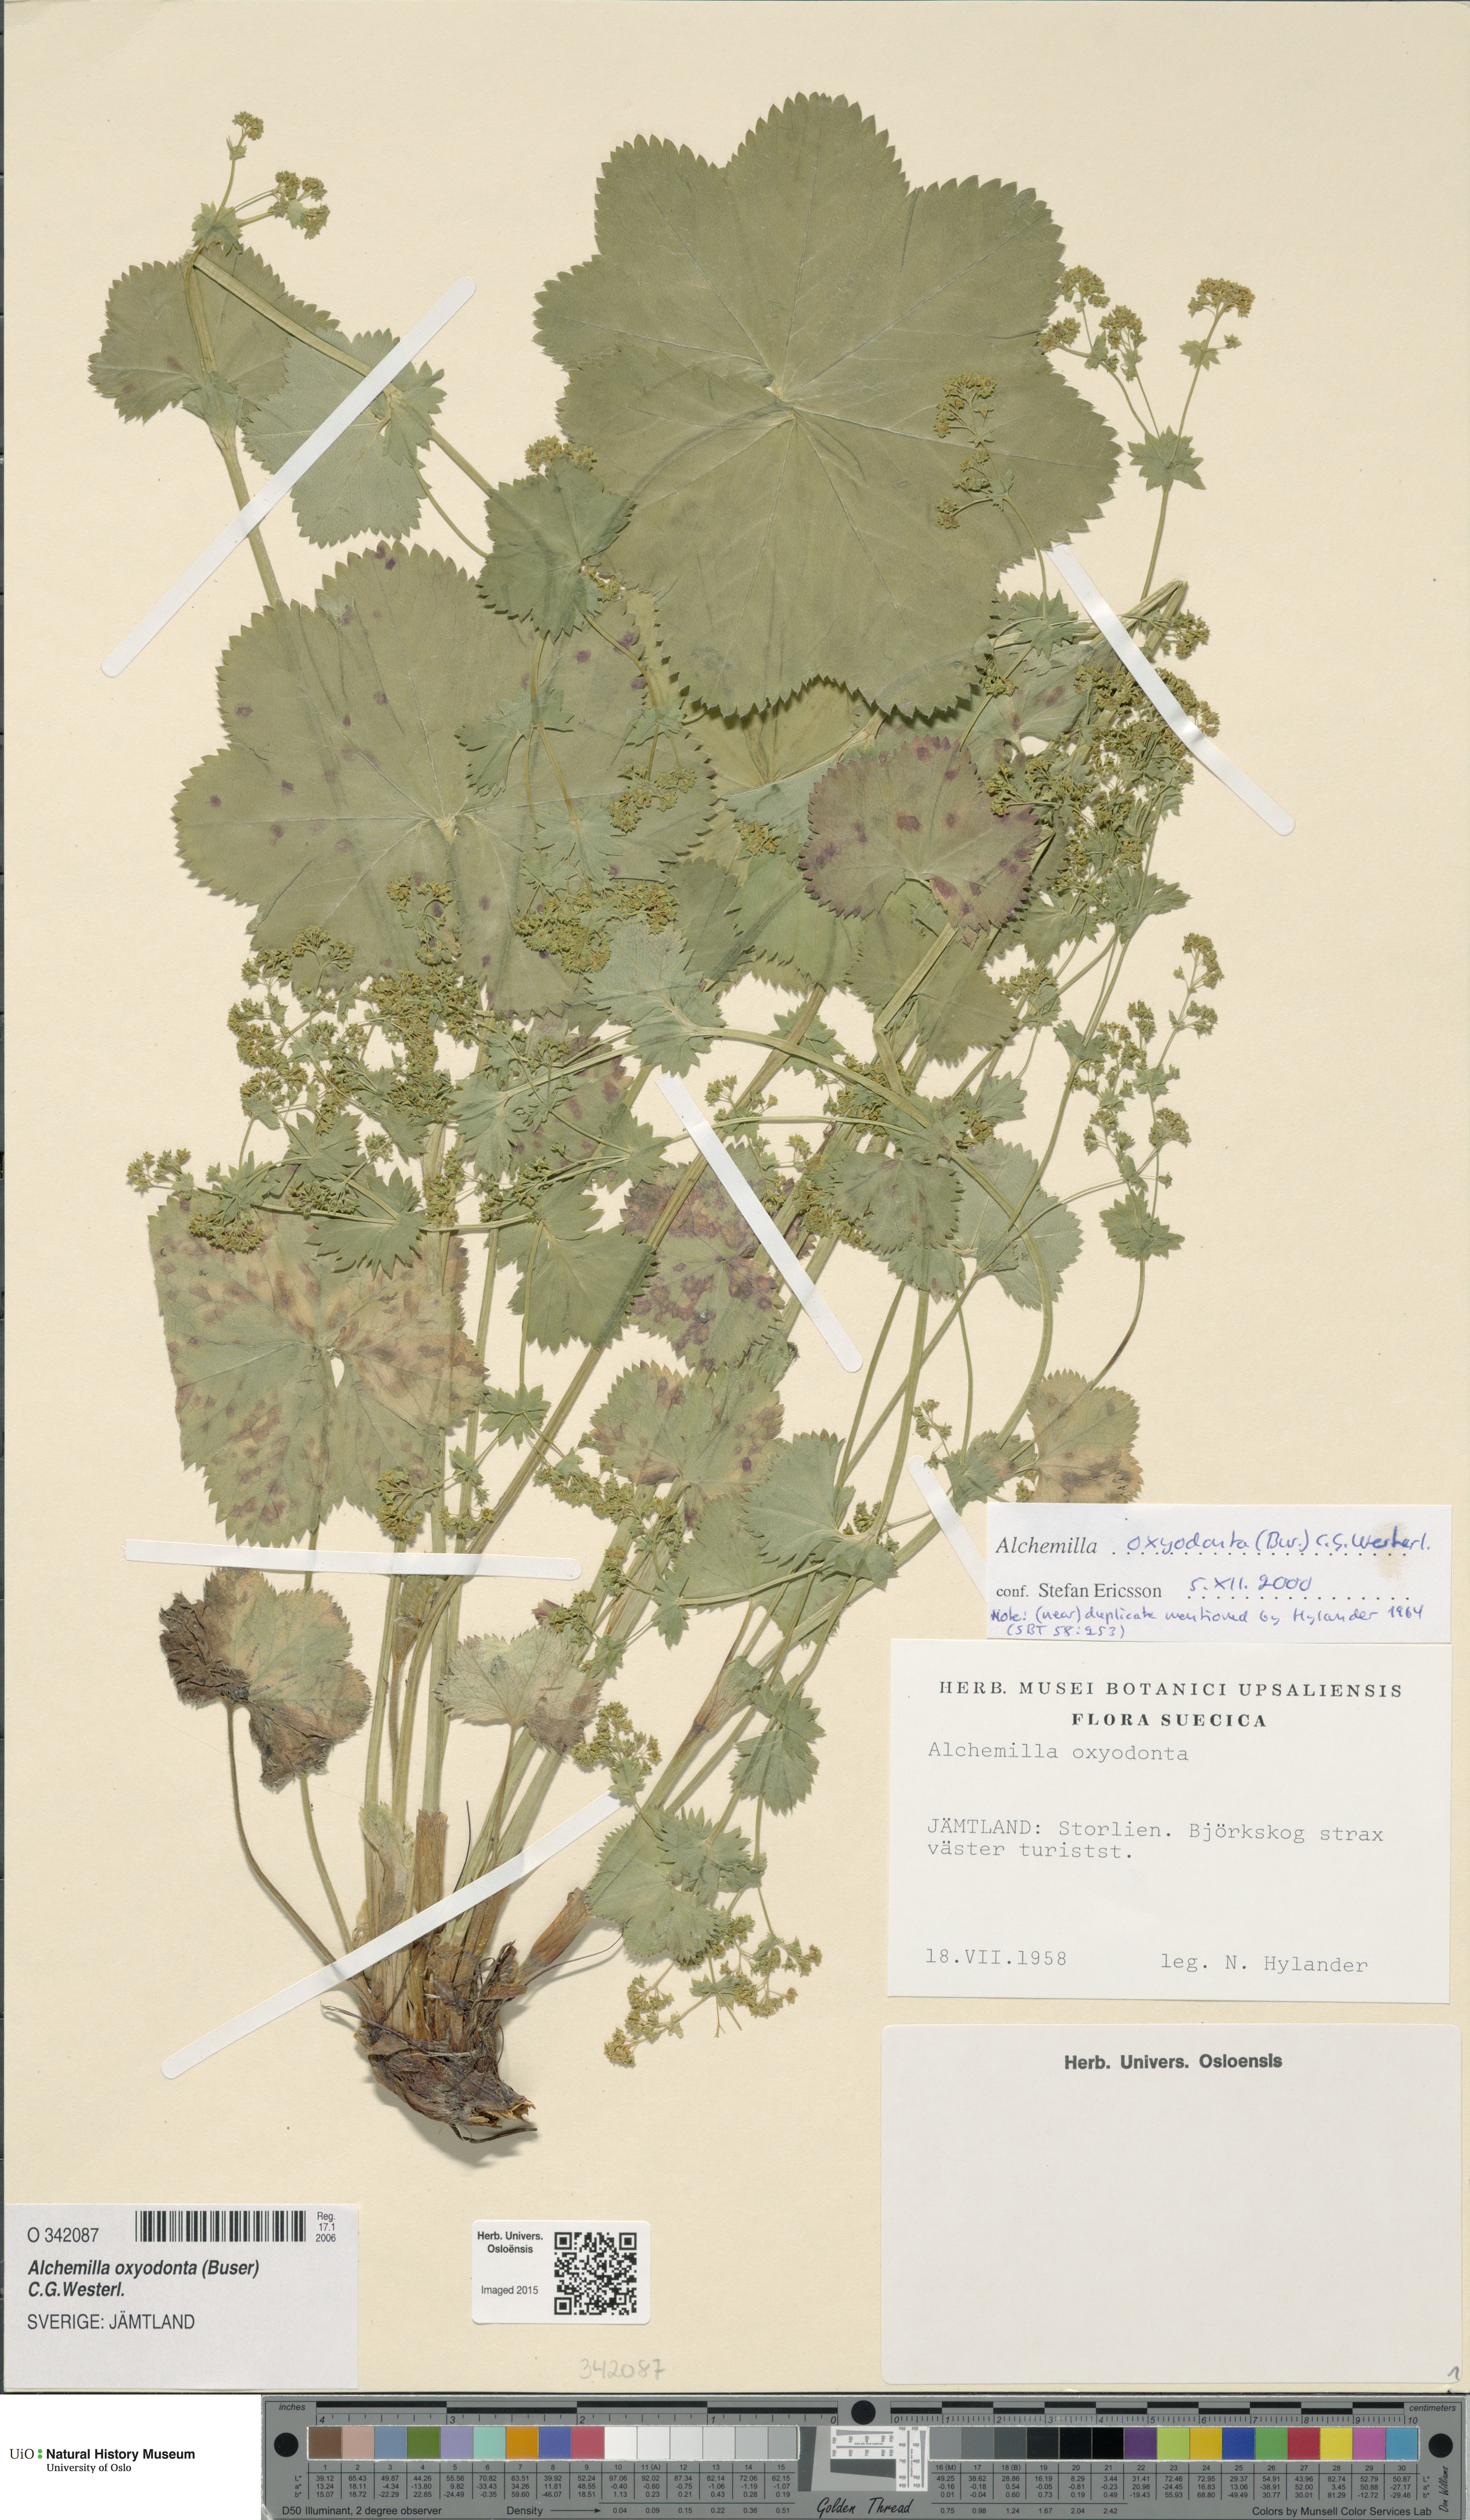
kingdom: Plantae
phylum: Tracheophyta
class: Magnoliopsida
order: Rosales
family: Rosaceae
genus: Alchemilla
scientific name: Alchemilla oxyodonta
